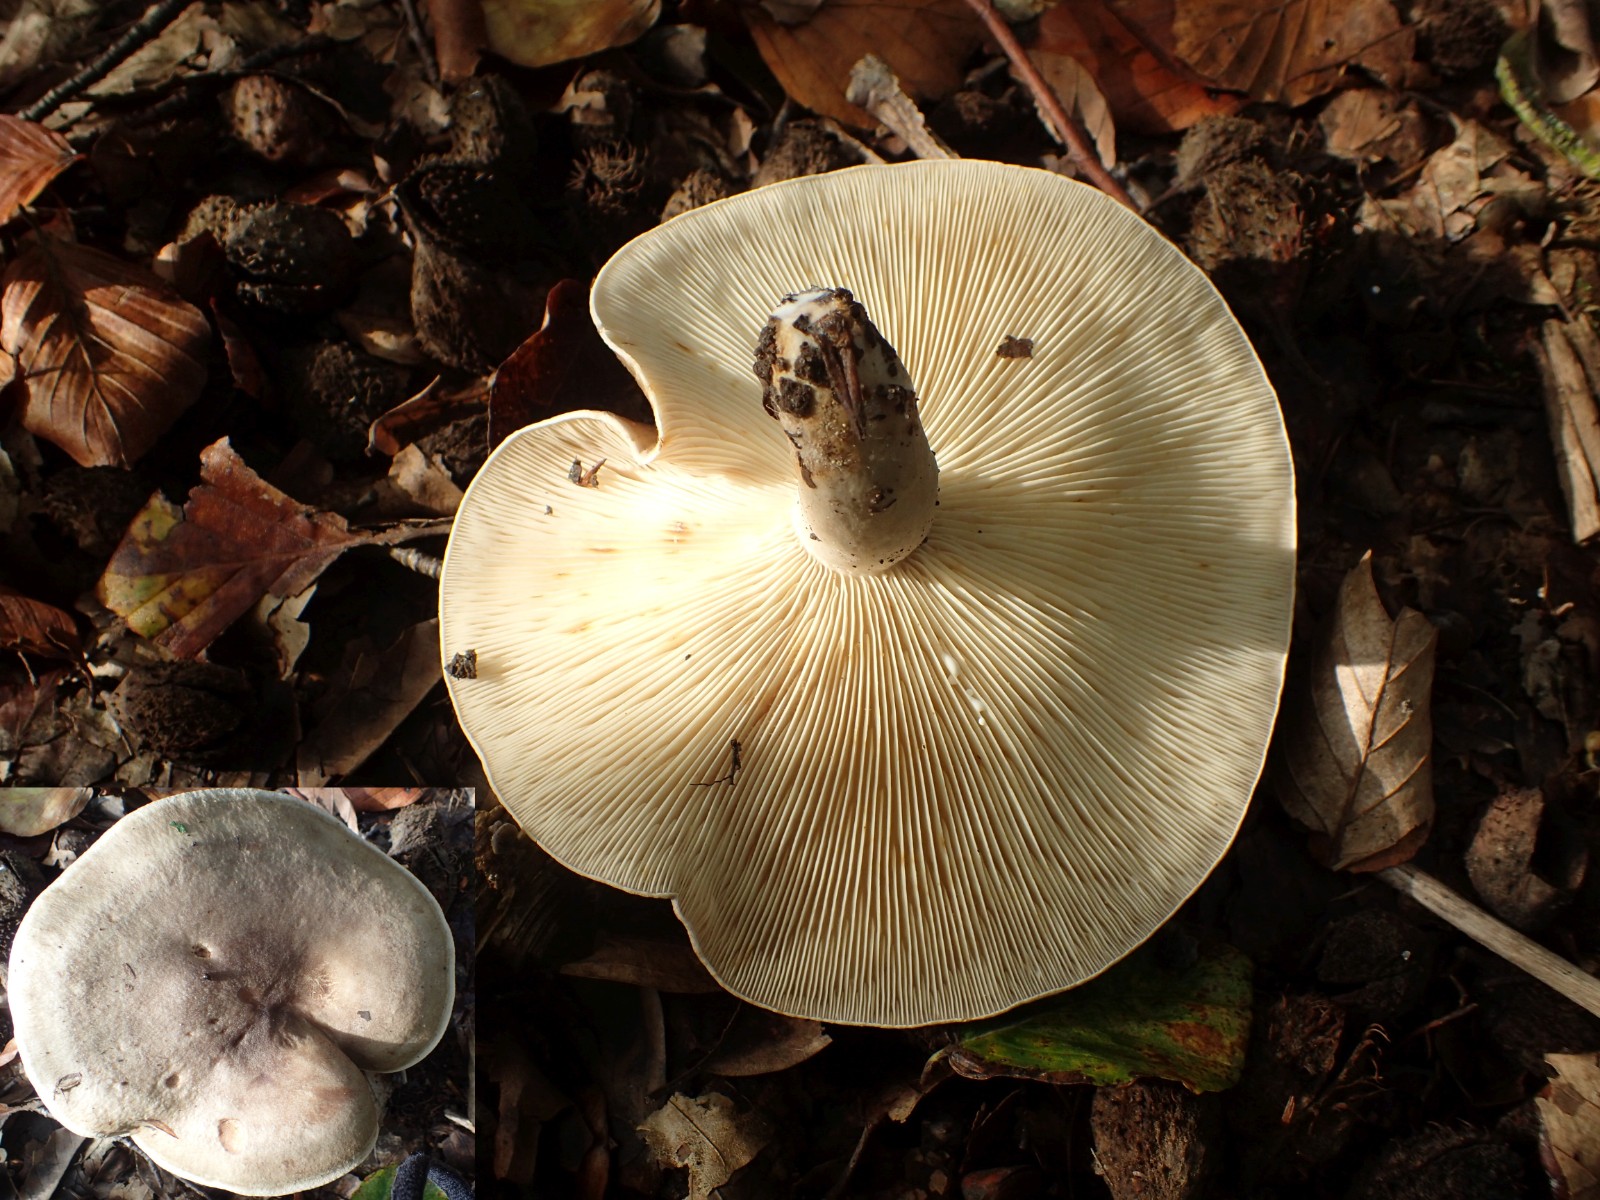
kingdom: Fungi
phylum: Basidiomycota
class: Agaricomycetes
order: Russulales
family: Russulaceae
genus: Lactarius
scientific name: Lactarius pyrogalus
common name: hassel-mælkehat
